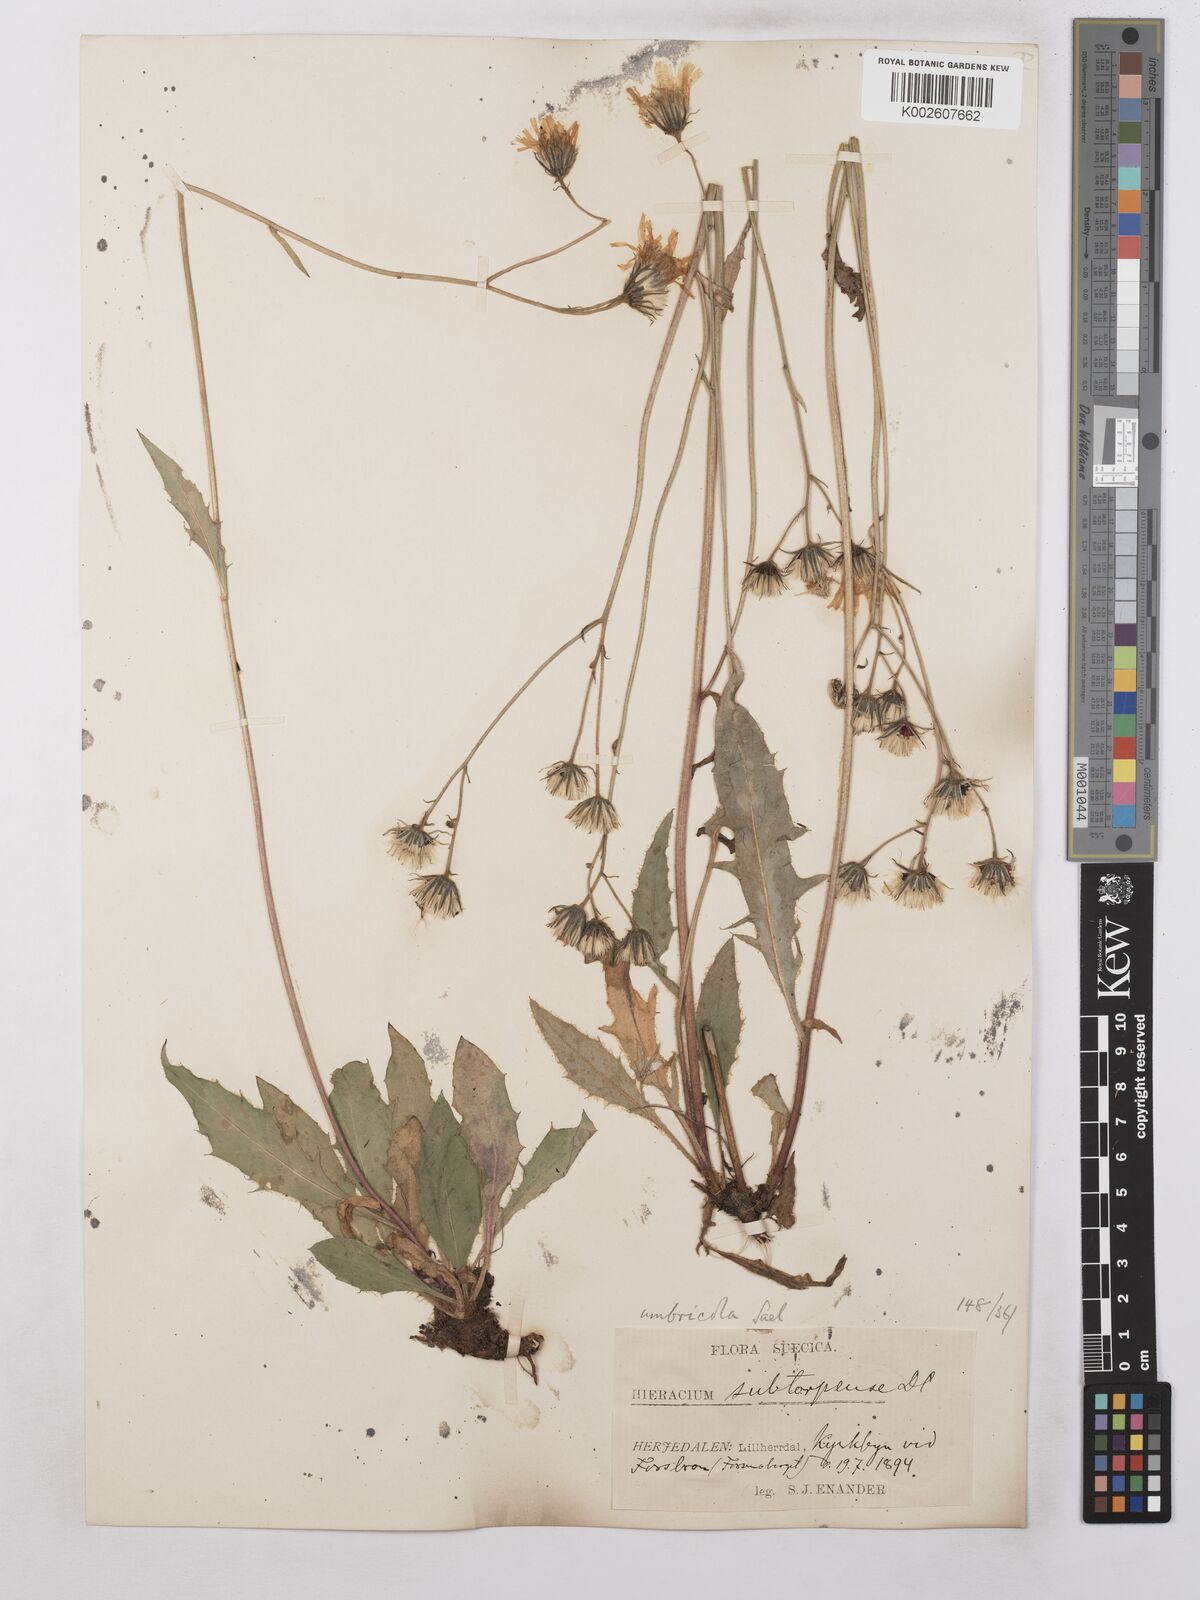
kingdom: Plantae
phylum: Tracheophyta
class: Magnoliopsida
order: Asterales
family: Asteraceae
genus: Hieracium
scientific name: Hieracium subramosum
